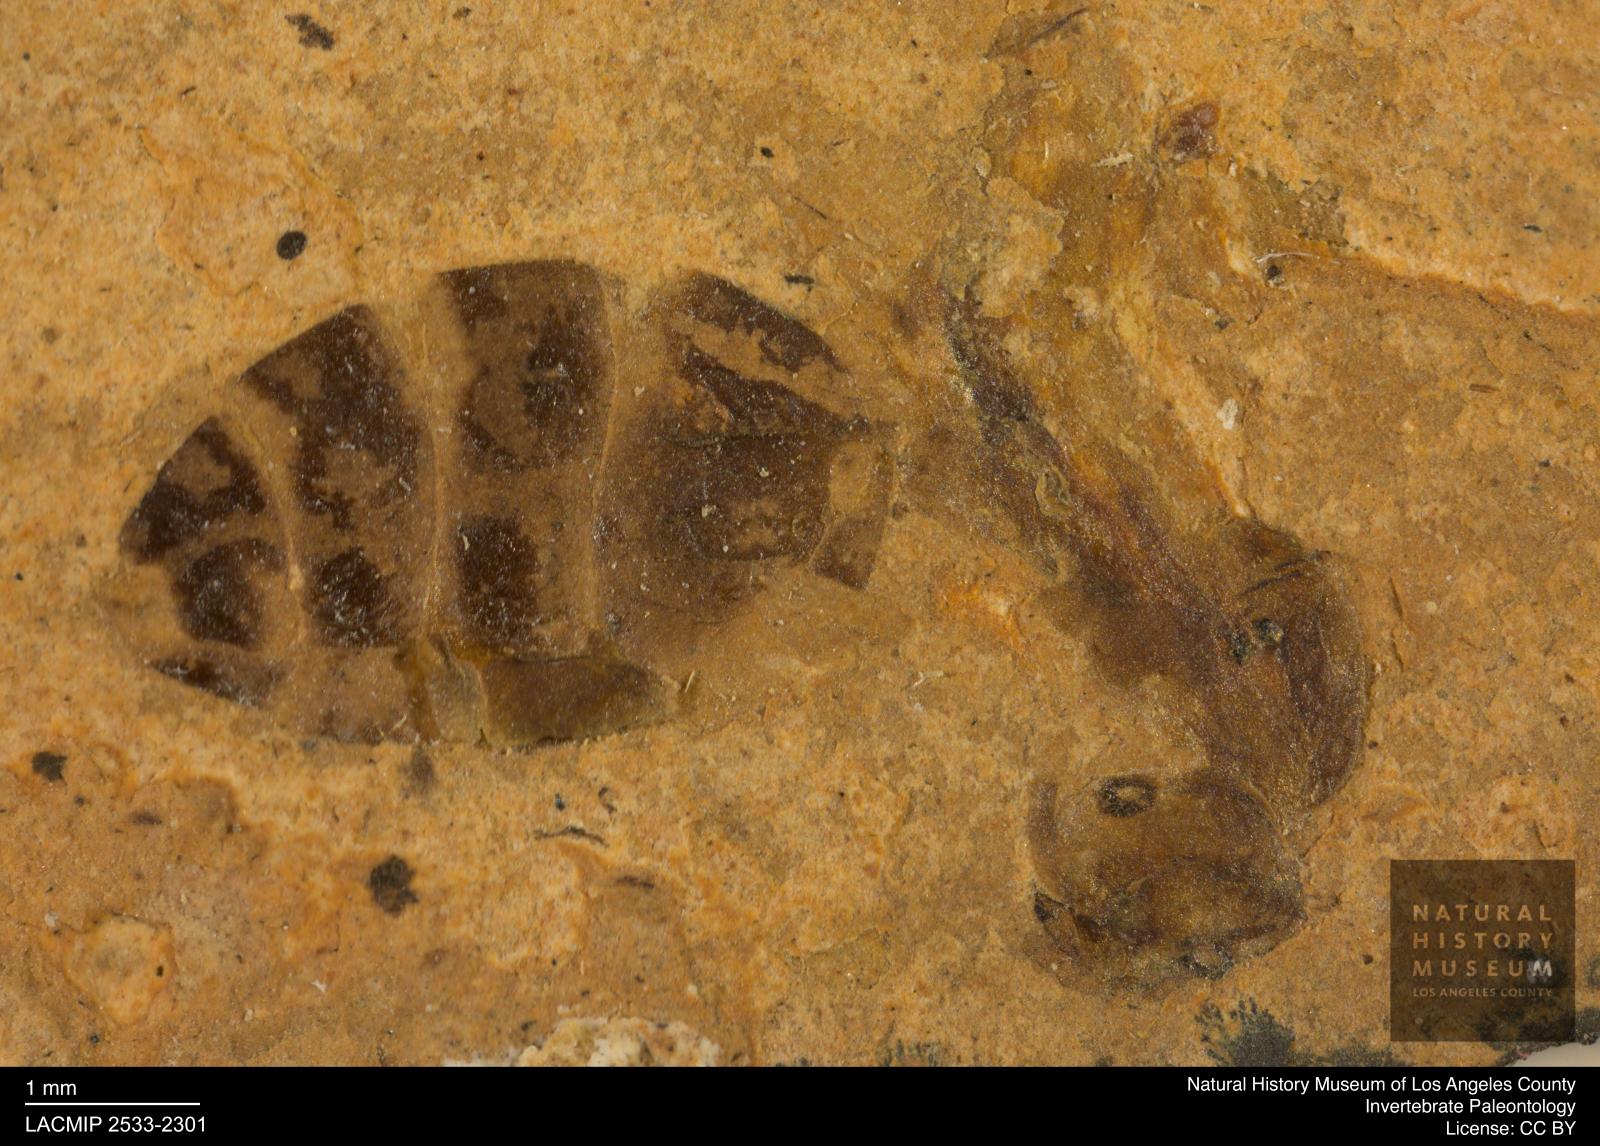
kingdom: Animalia
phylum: Arthropoda
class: Insecta
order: Hymenoptera
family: Formicidae
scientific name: Formicidae
